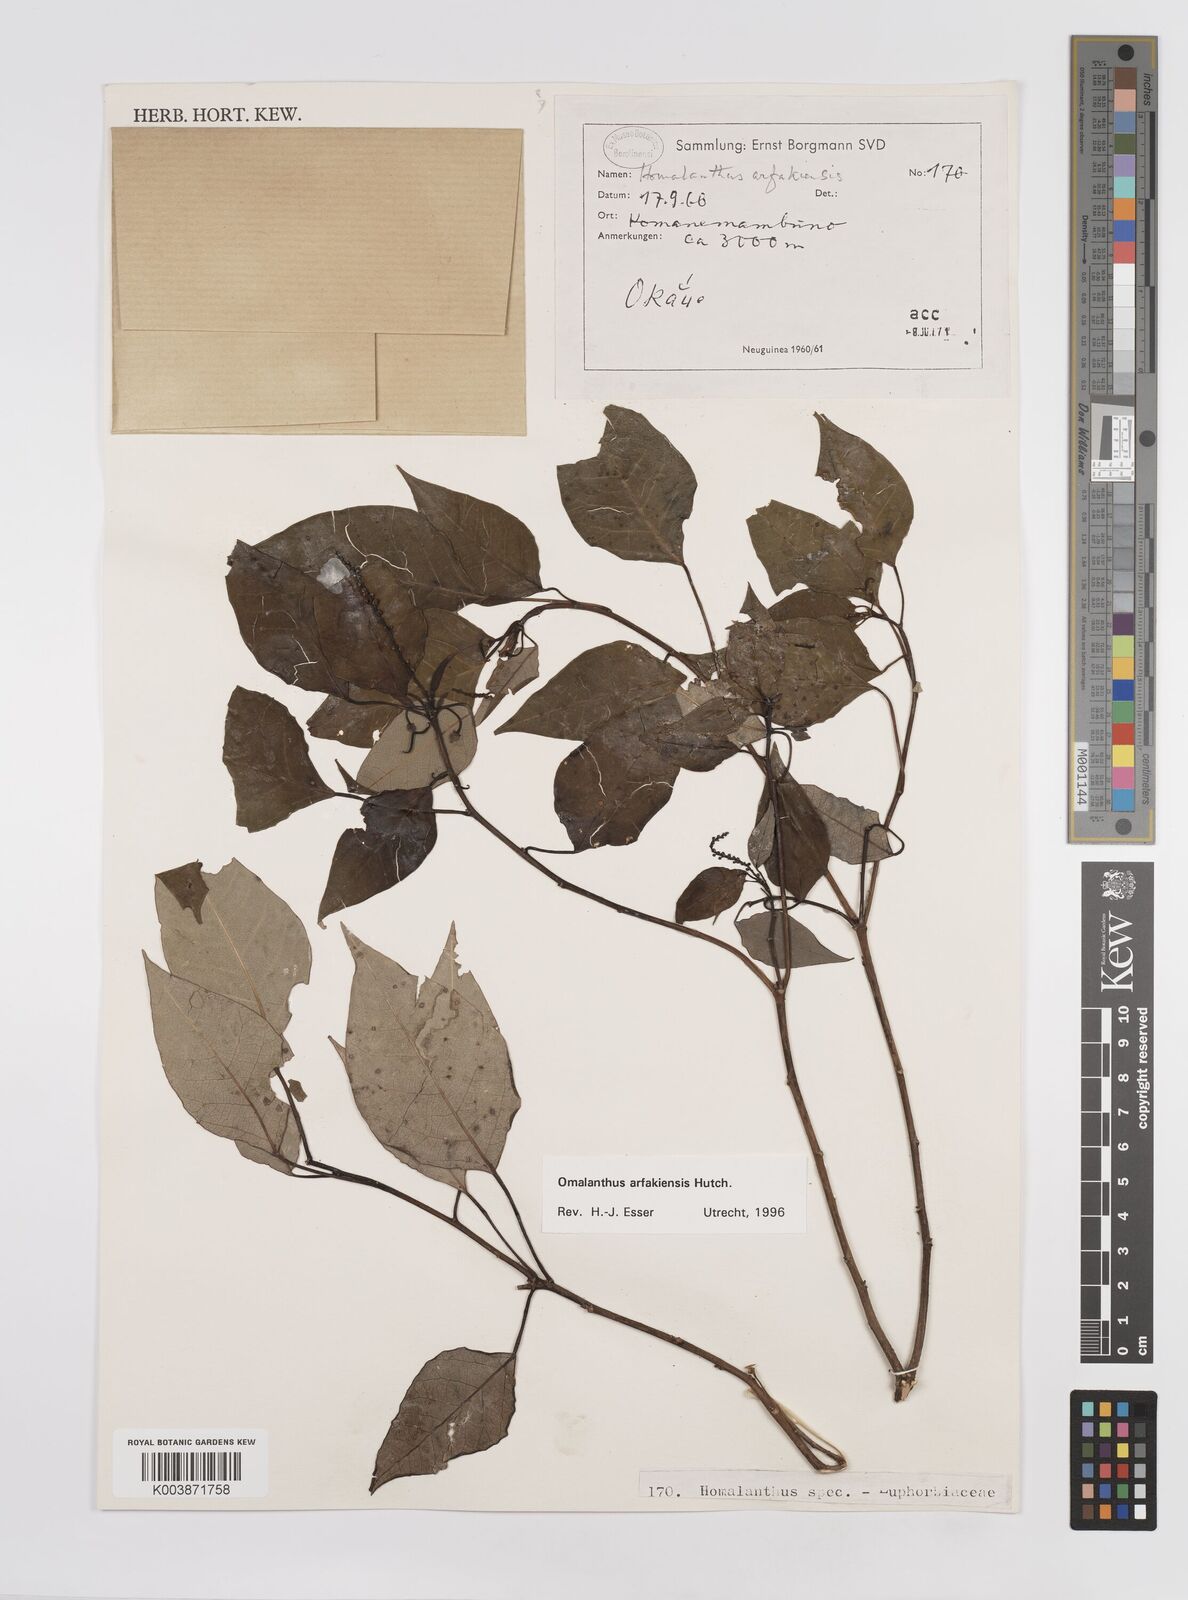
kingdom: Plantae
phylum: Tracheophyta
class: Magnoliopsida
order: Malpighiales
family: Euphorbiaceae
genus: Homalanthus
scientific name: Homalanthus arfakiensis
